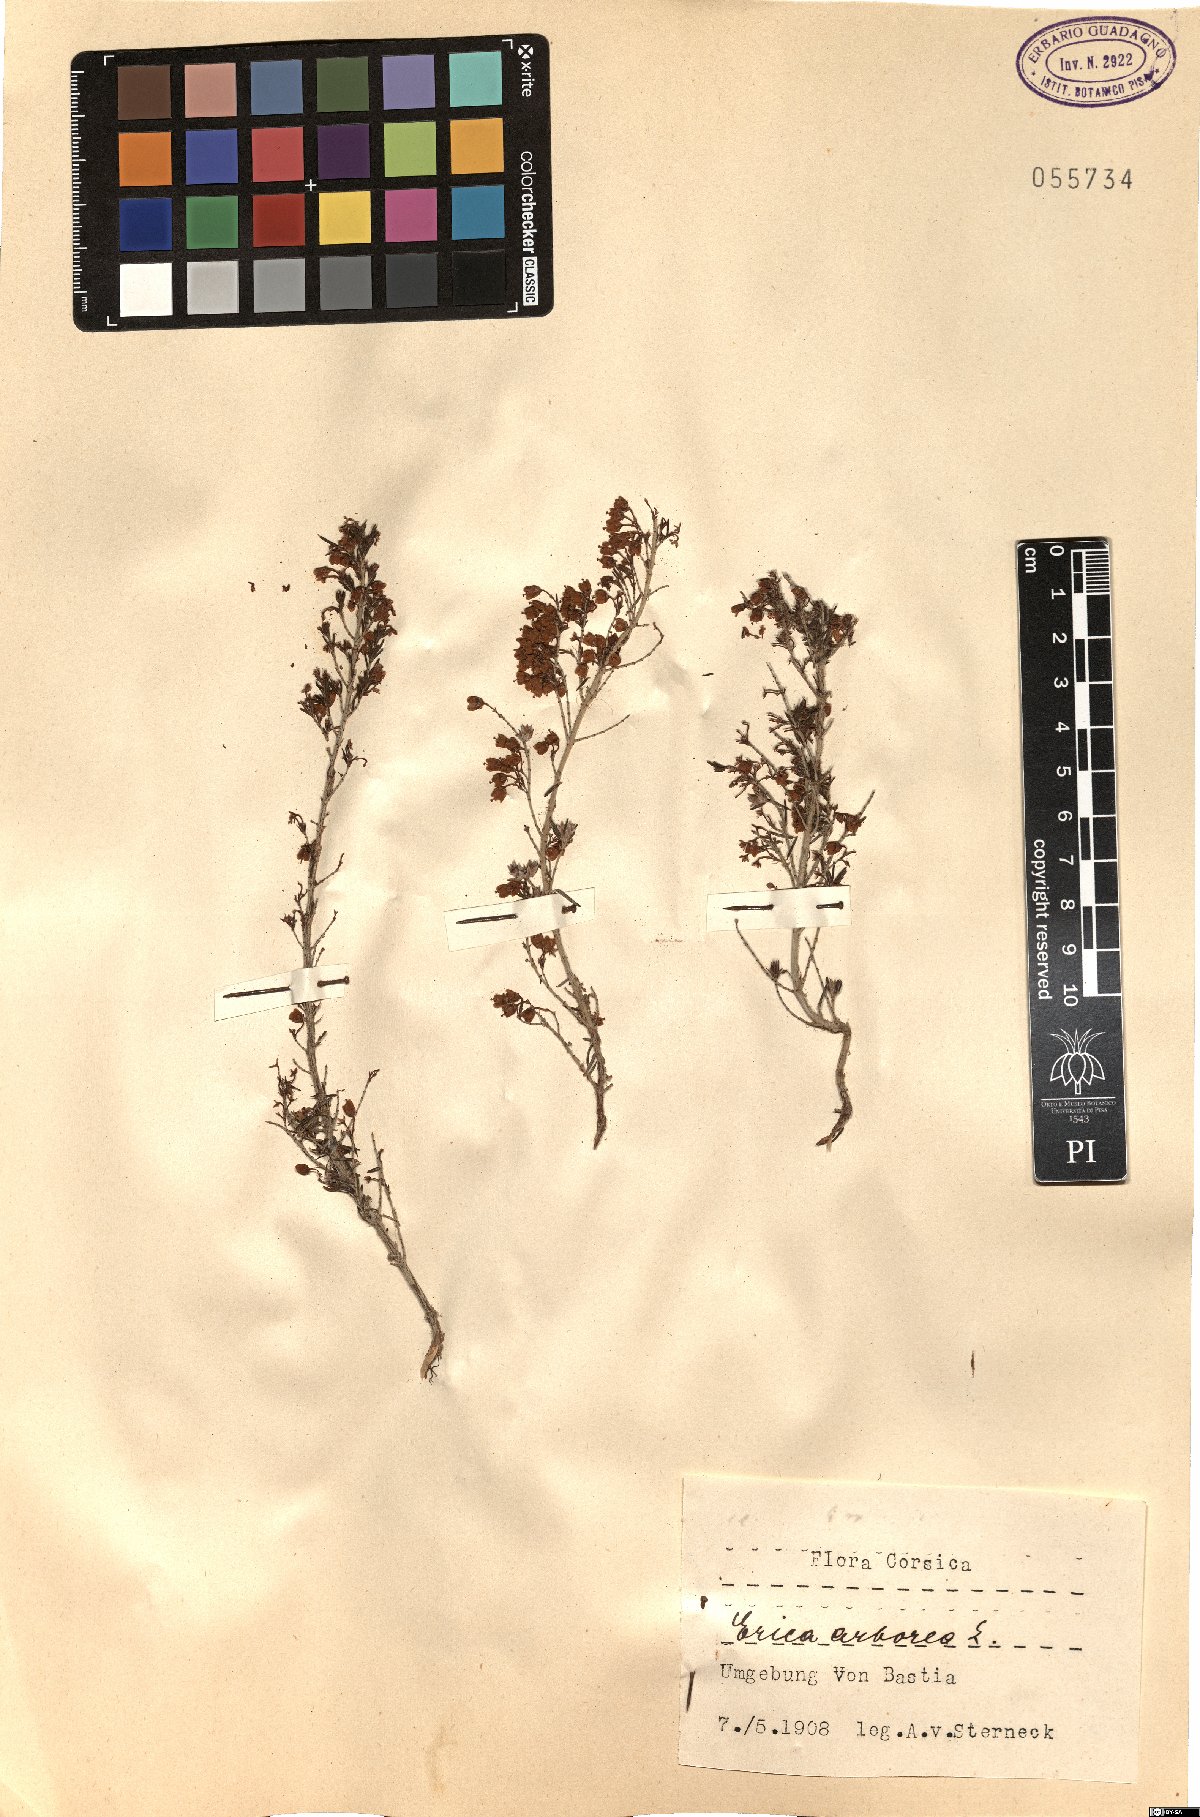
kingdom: Plantae
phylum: Tracheophyta
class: Magnoliopsida
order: Ericales
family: Ericaceae
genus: Erica
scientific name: Erica arborea
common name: Tree heath
